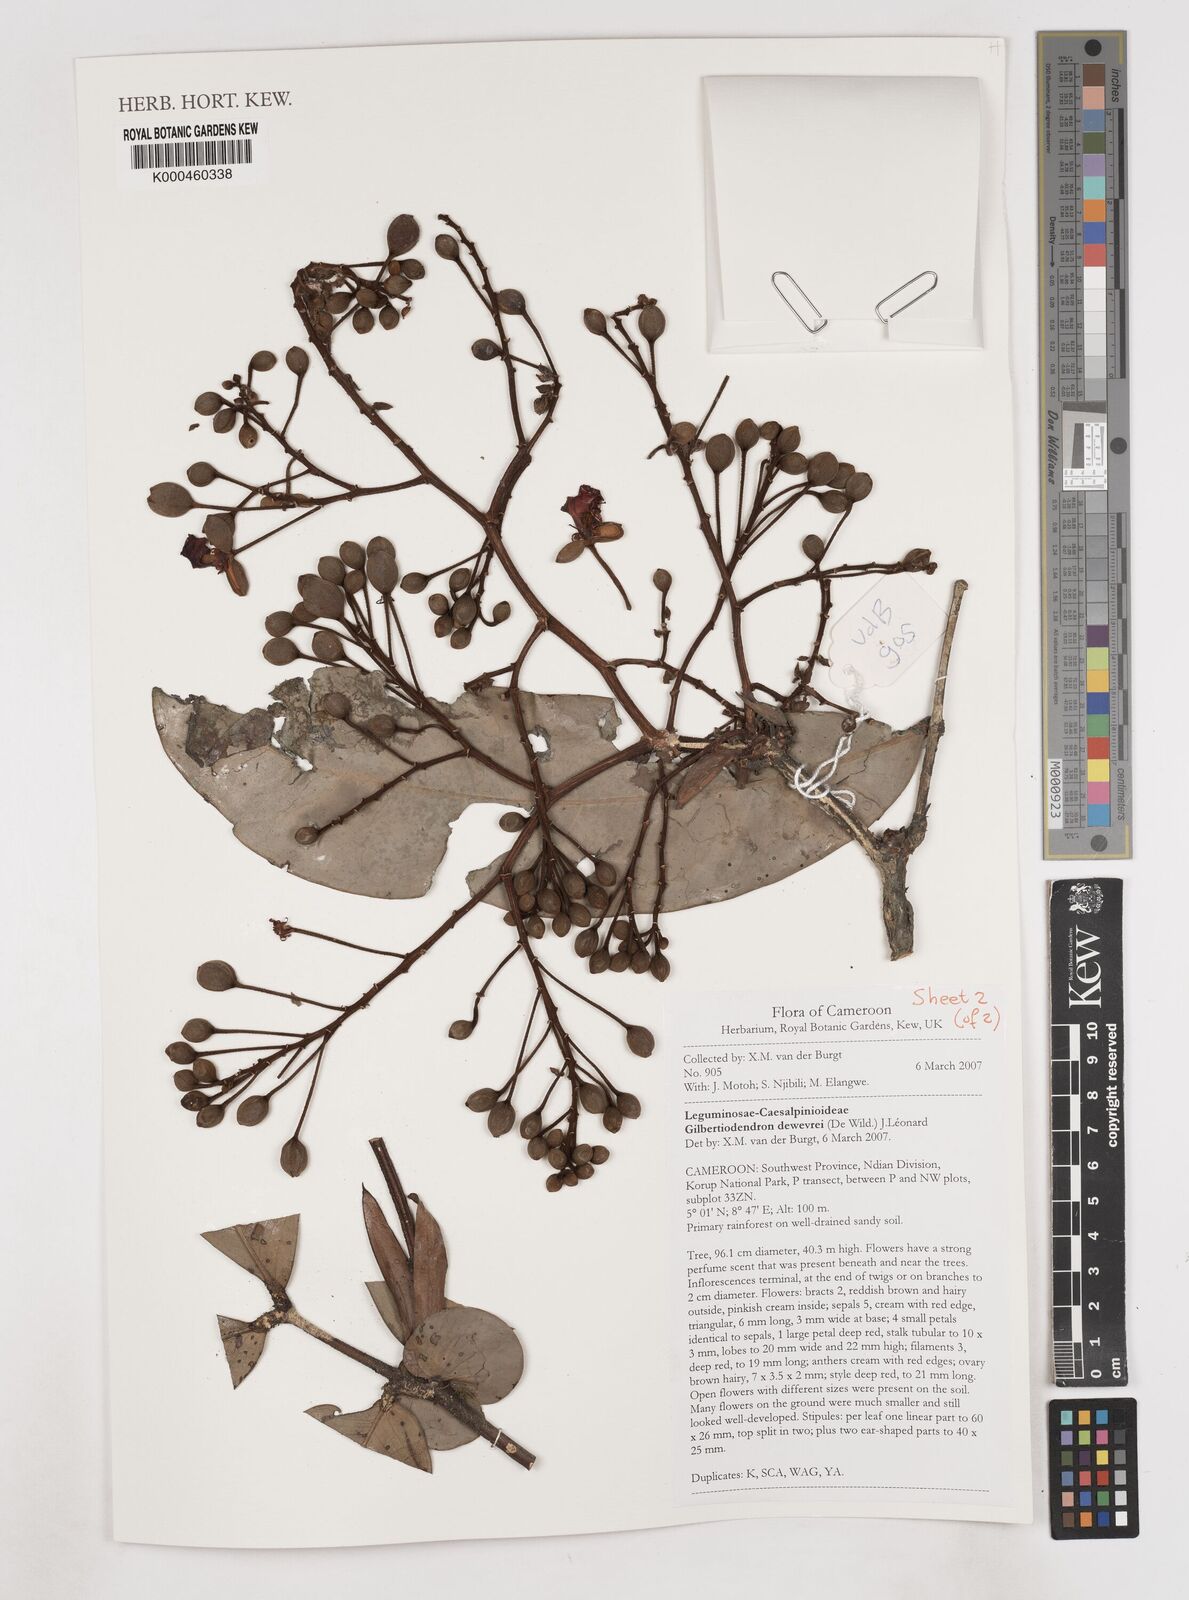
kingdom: Plantae
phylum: Tracheophyta
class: Magnoliopsida
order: Fabales
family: Fabaceae
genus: Gilbertiodendron
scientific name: Gilbertiodendron
